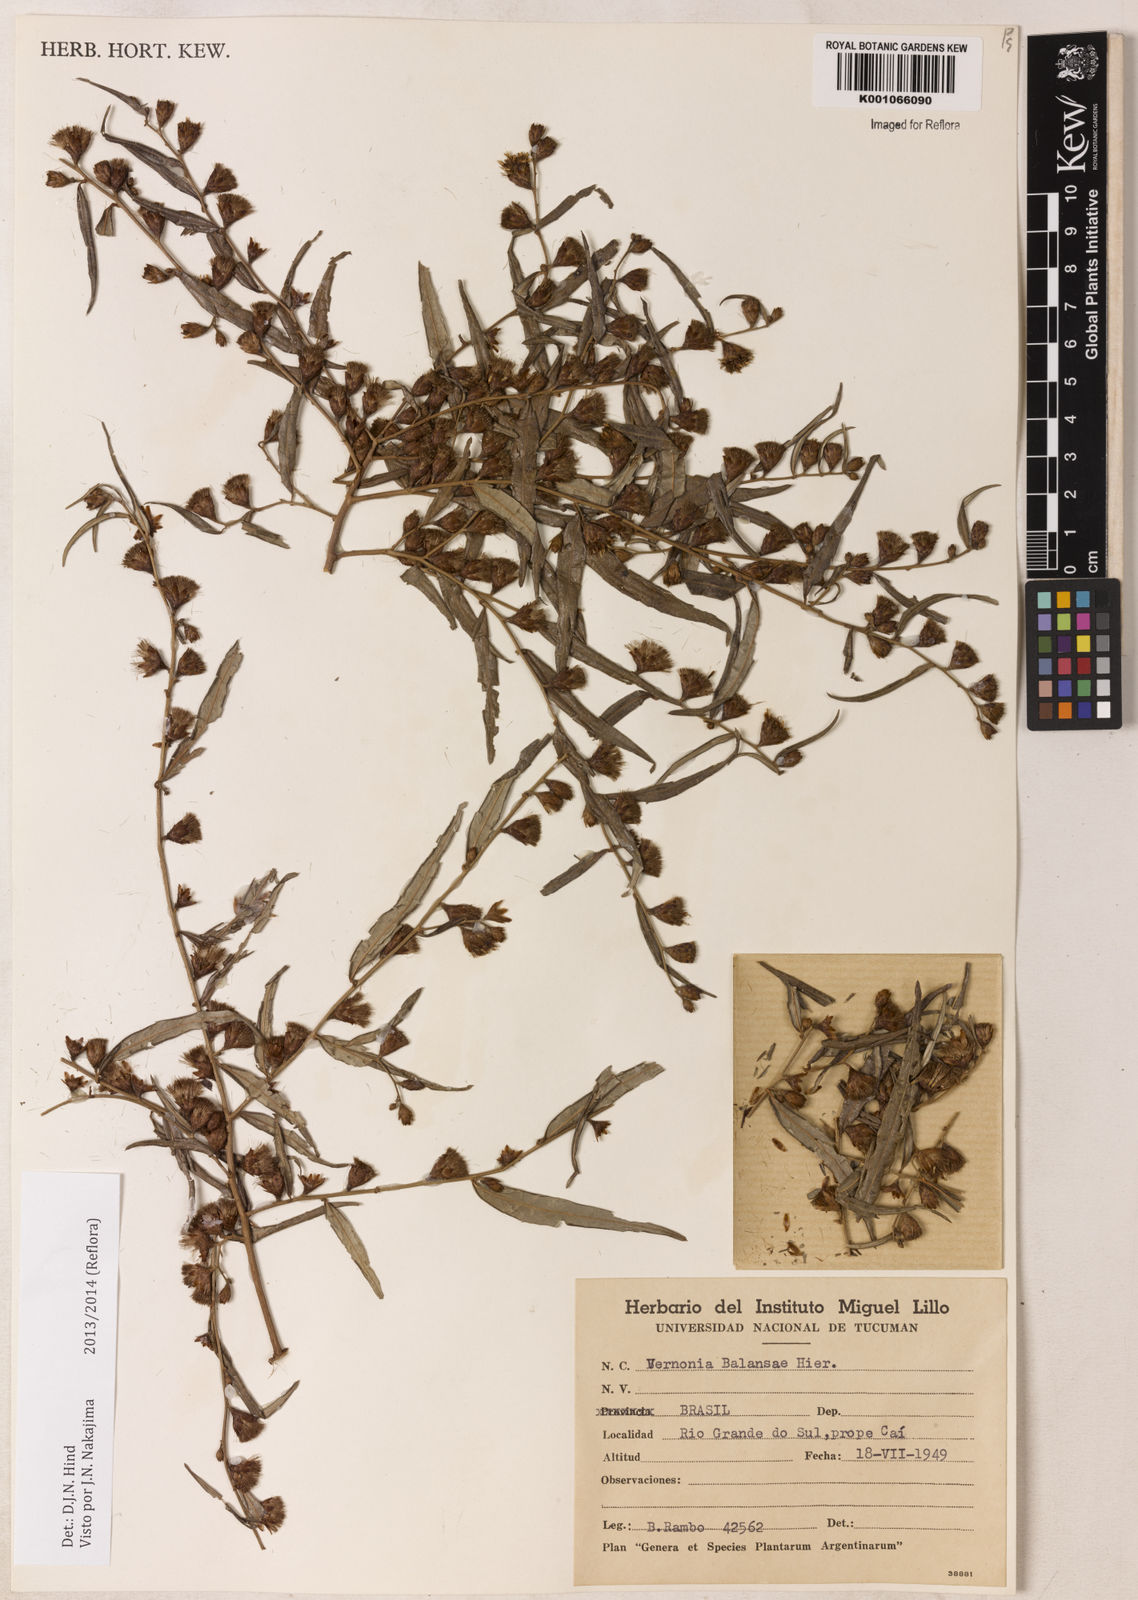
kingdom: Plantae
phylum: Tracheophyta
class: Magnoliopsida
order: Asterales
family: Asteraceae
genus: Vernonia
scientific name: Vernonia balansae
